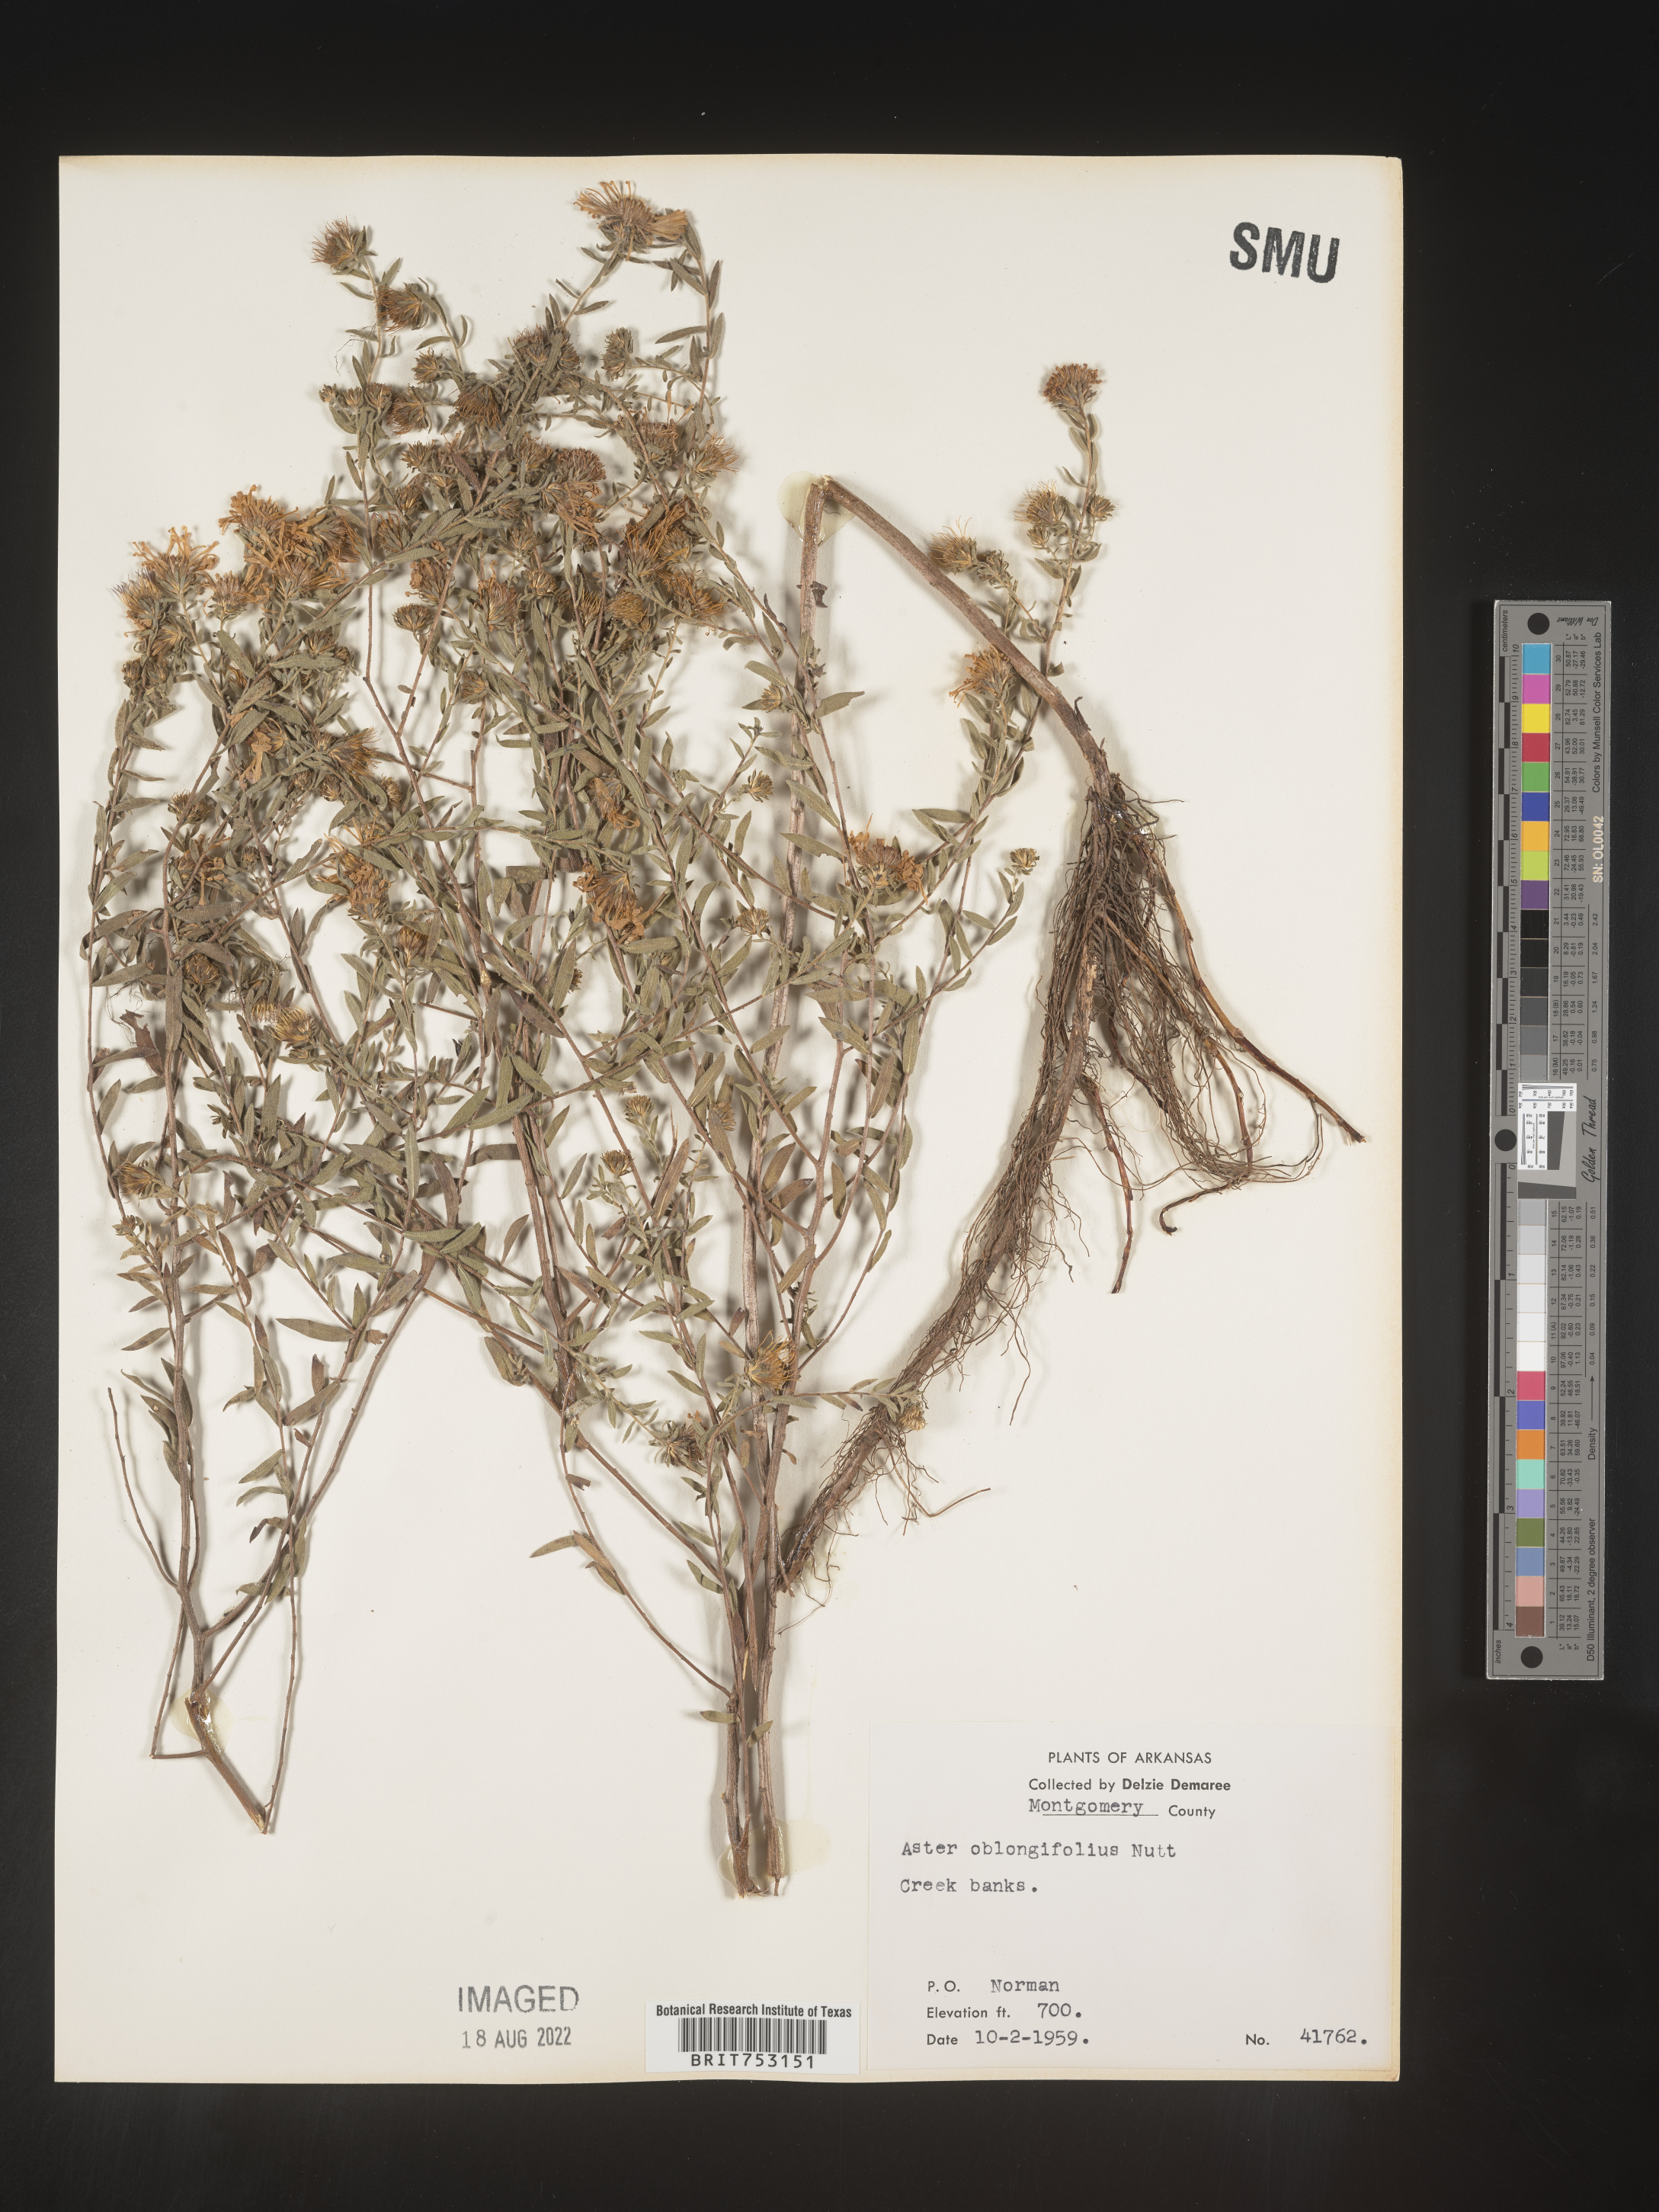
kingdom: Plantae
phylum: Tracheophyta
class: Magnoliopsida
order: Asterales
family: Asteraceae
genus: Symphyotrichum
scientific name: Symphyotrichum oblongifolium
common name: Aromatic aster
